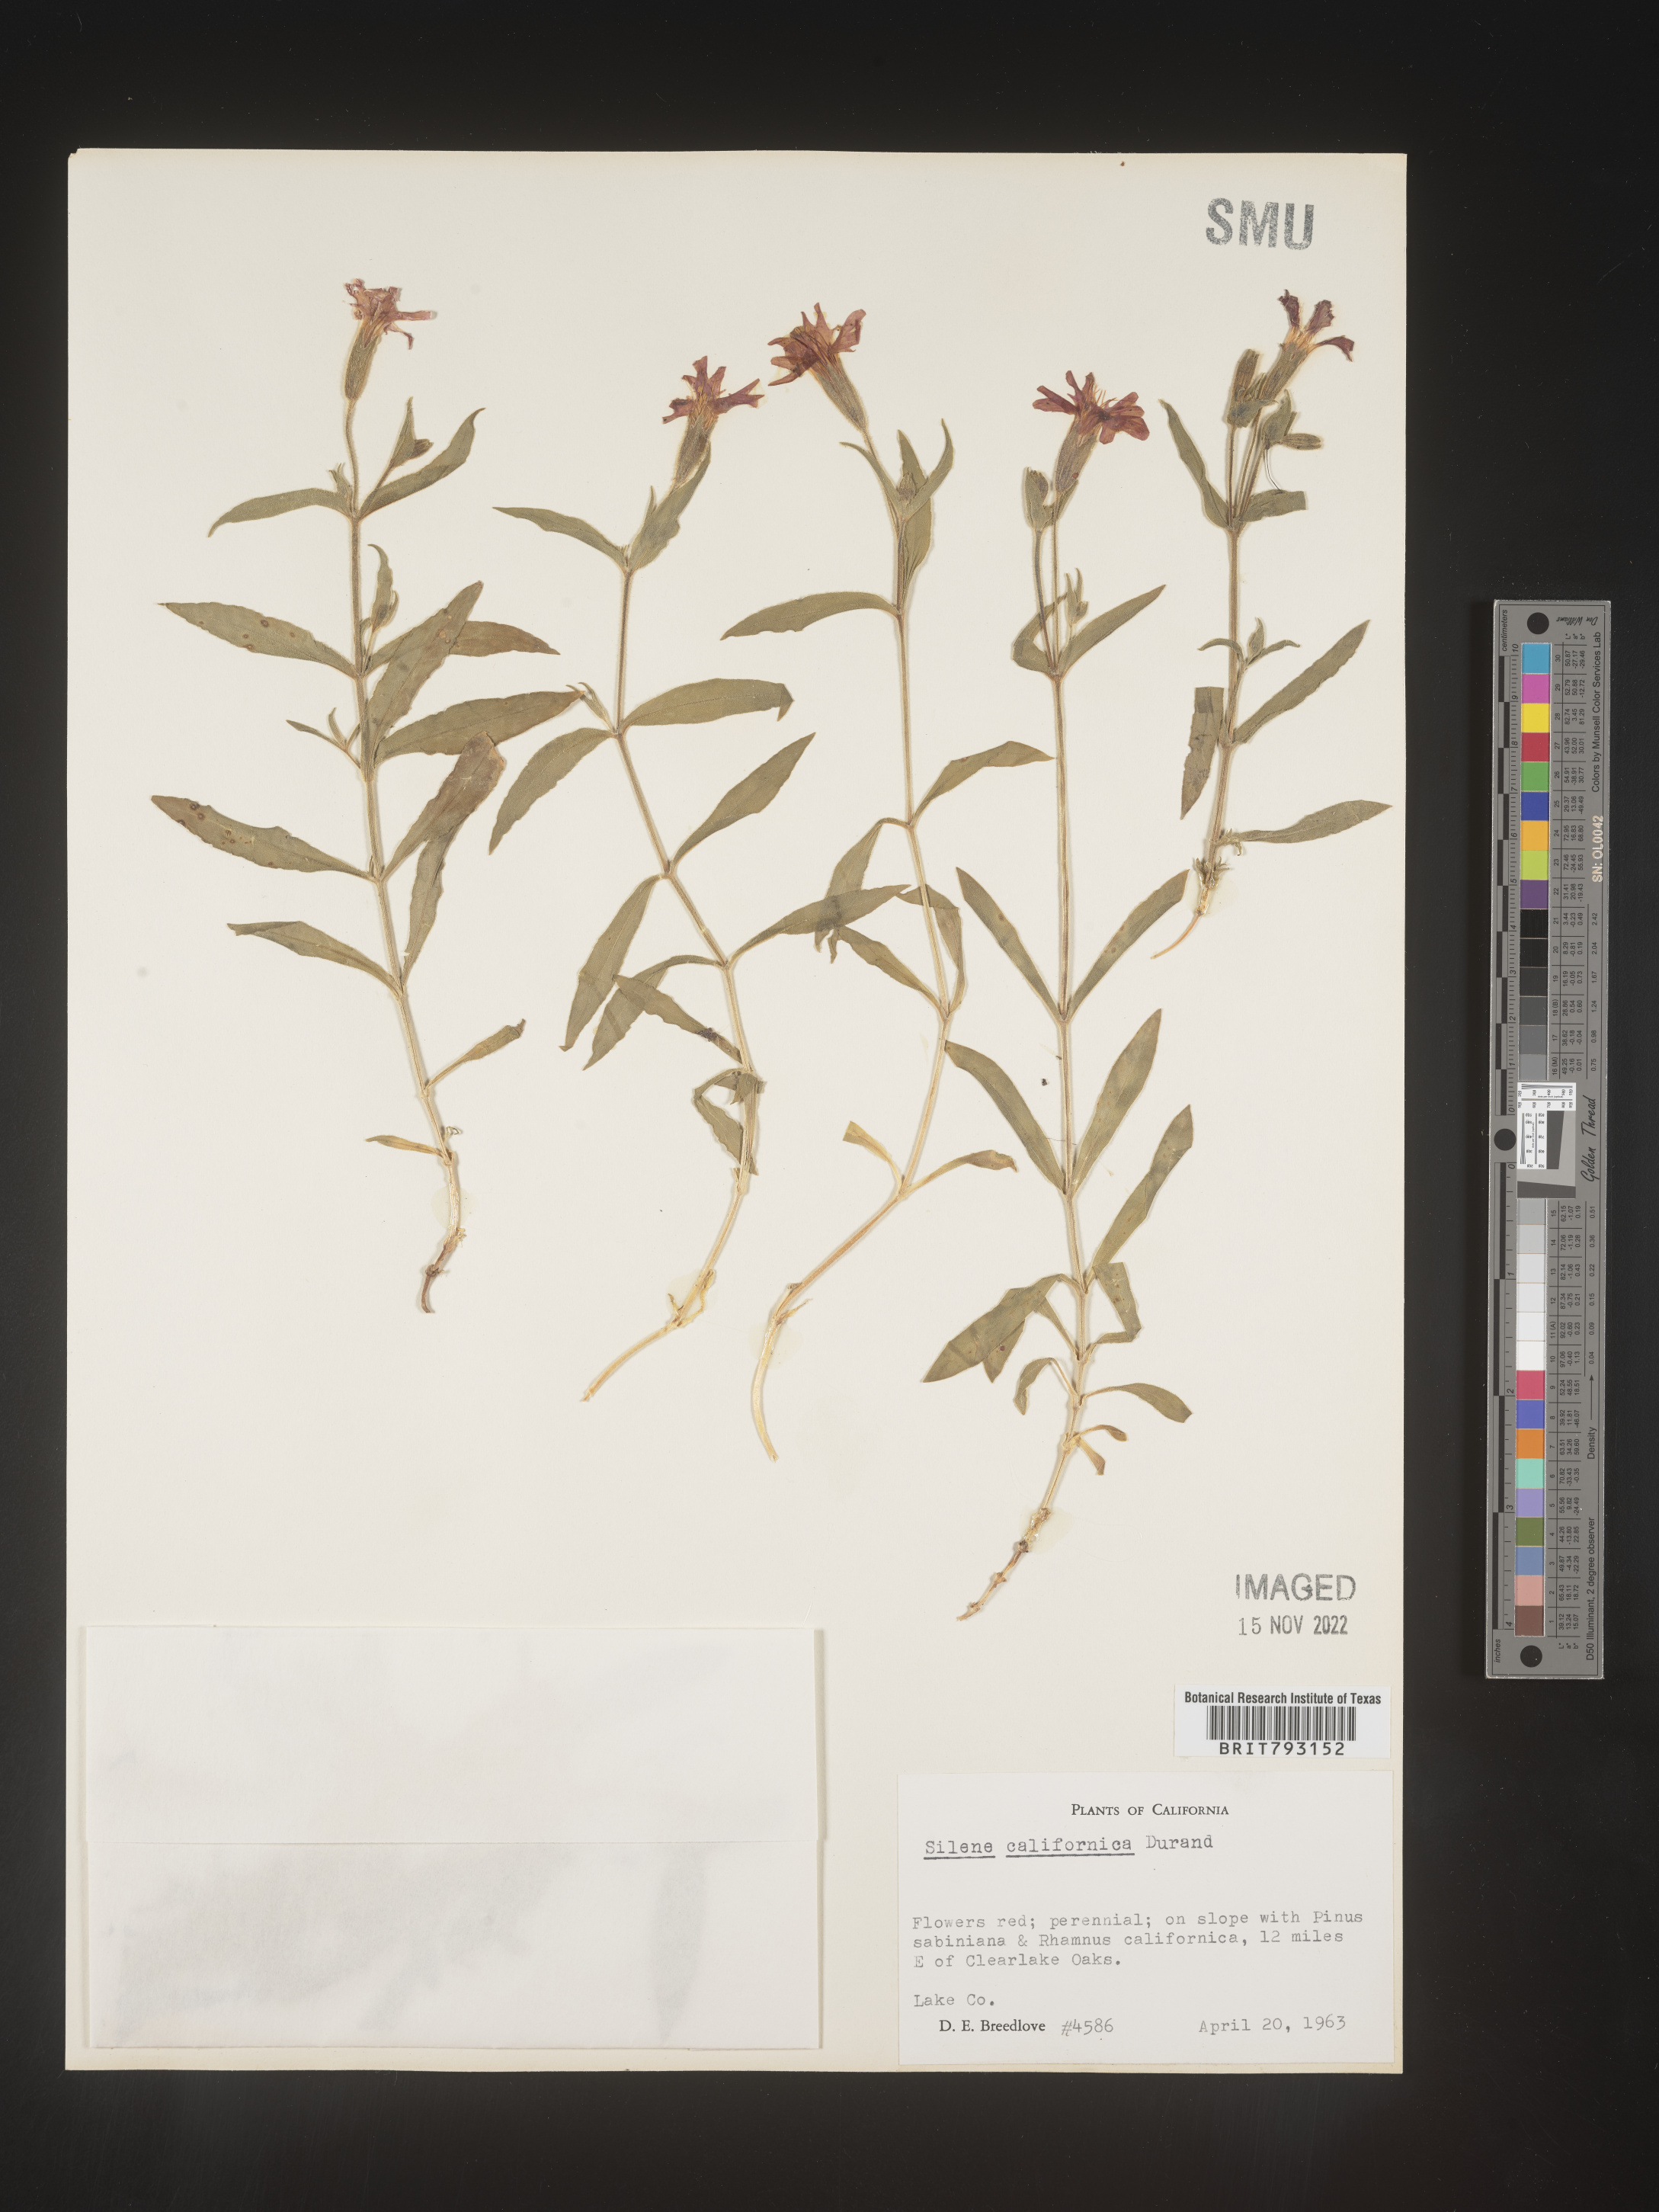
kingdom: Plantae
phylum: Tracheophyta
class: Magnoliopsida
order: Caryophyllales
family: Caryophyllaceae
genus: Silene
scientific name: Silene laciniata
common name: Indian-pink
